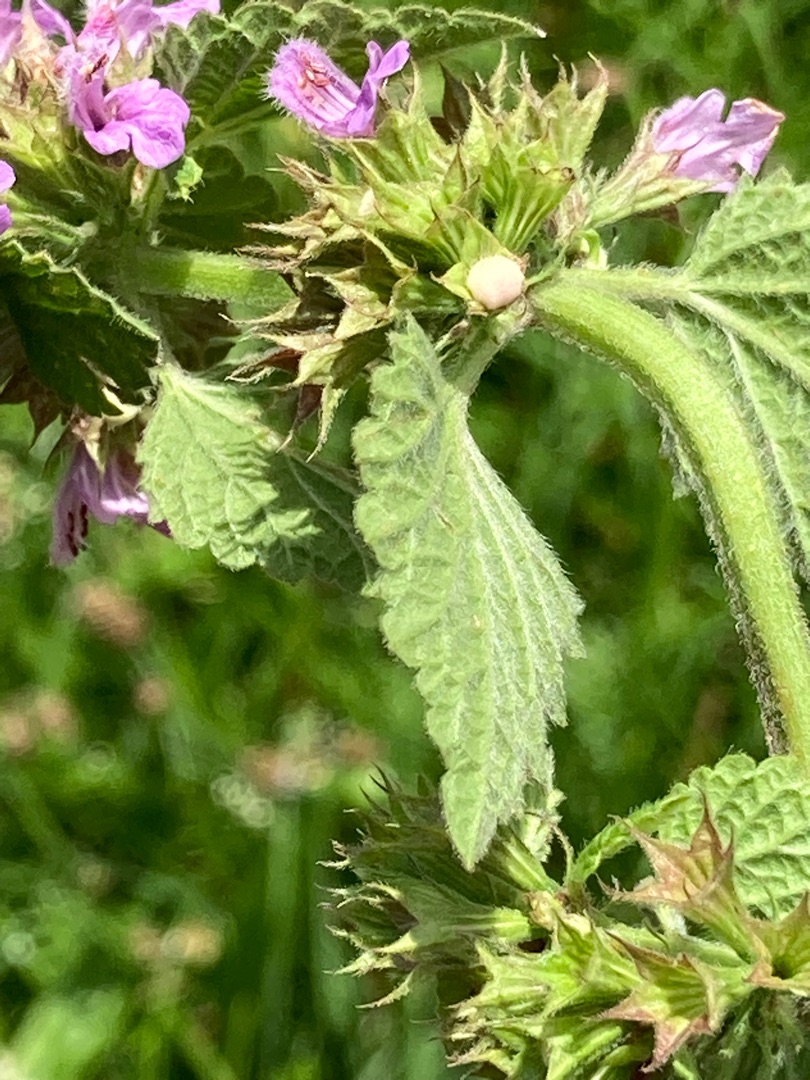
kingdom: Plantae
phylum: Tracheophyta
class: Magnoliopsida
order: Lamiales
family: Lamiaceae
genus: Ballota
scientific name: Ballota nigra
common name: Tandbæger
